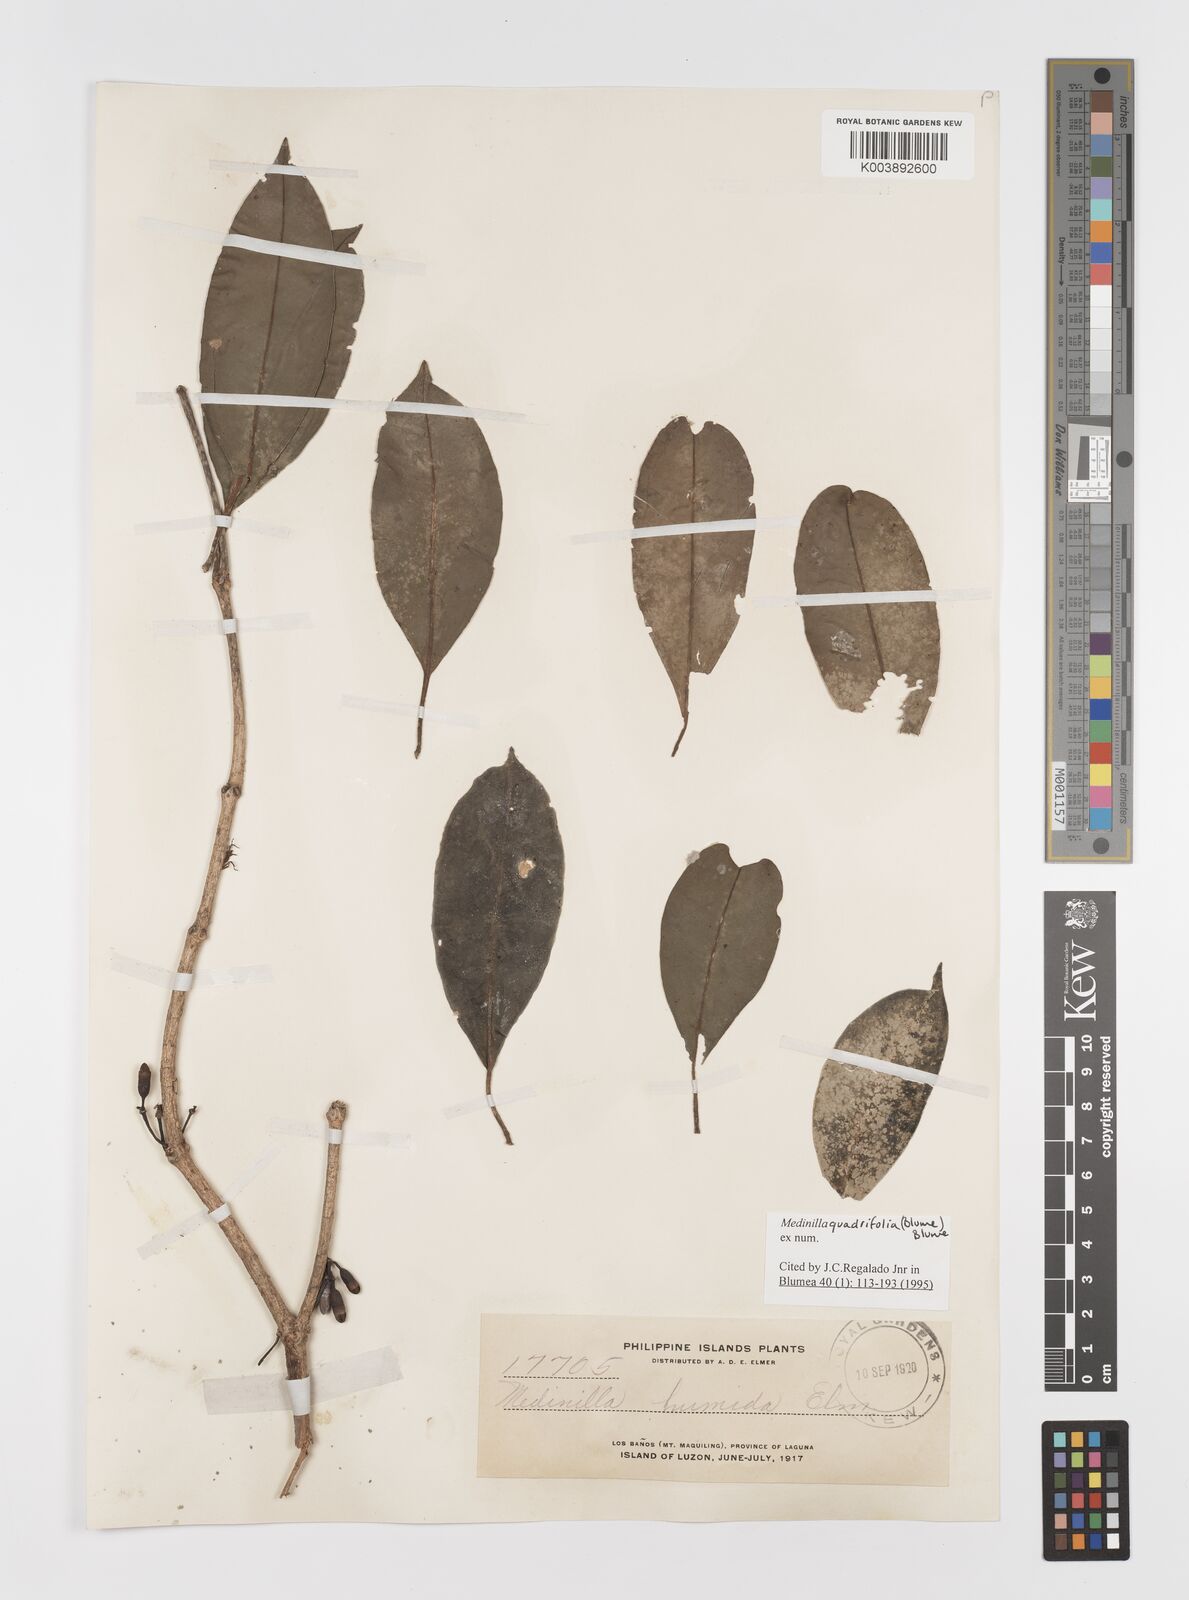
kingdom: Plantae
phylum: Tracheophyta
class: Magnoliopsida
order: Myrtales
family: Melastomataceae
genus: Medinilla
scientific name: Medinilla quadrifolia
